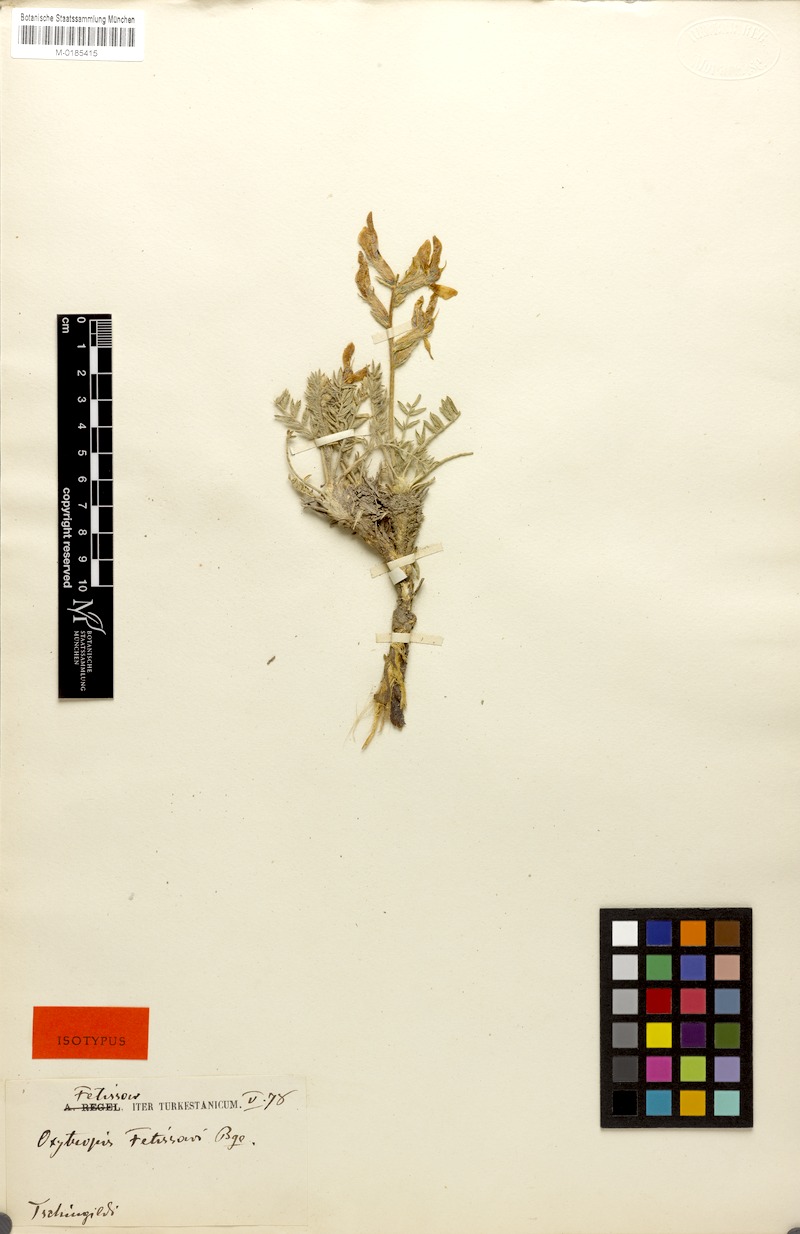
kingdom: Plantae
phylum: Tracheophyta
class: Magnoliopsida
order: Fabales
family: Fabaceae
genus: Oxytropis
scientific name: Oxytropis fetisowii
